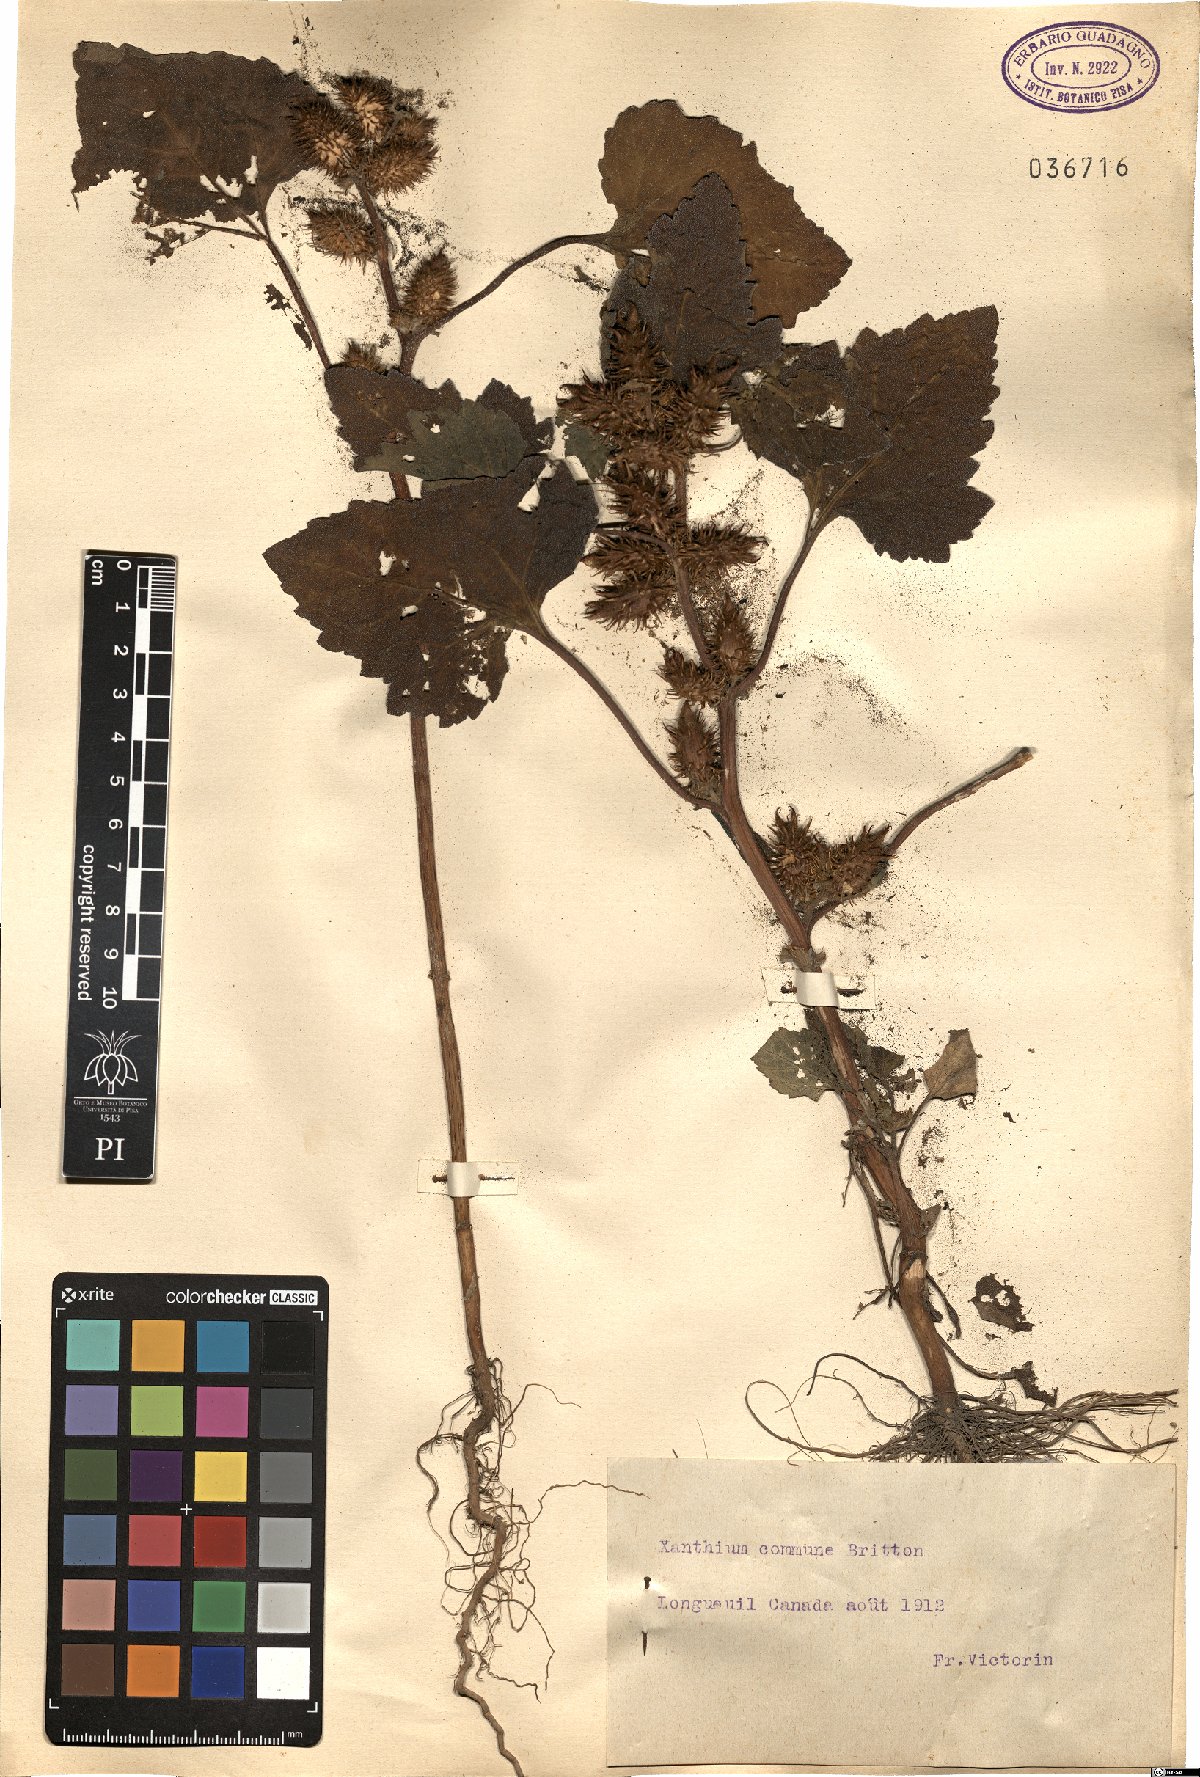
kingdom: Plantae
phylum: Tracheophyta
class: Magnoliopsida
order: Asterales
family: Asteraceae
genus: Xanthium
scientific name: Xanthium orientale
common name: Californian burr
